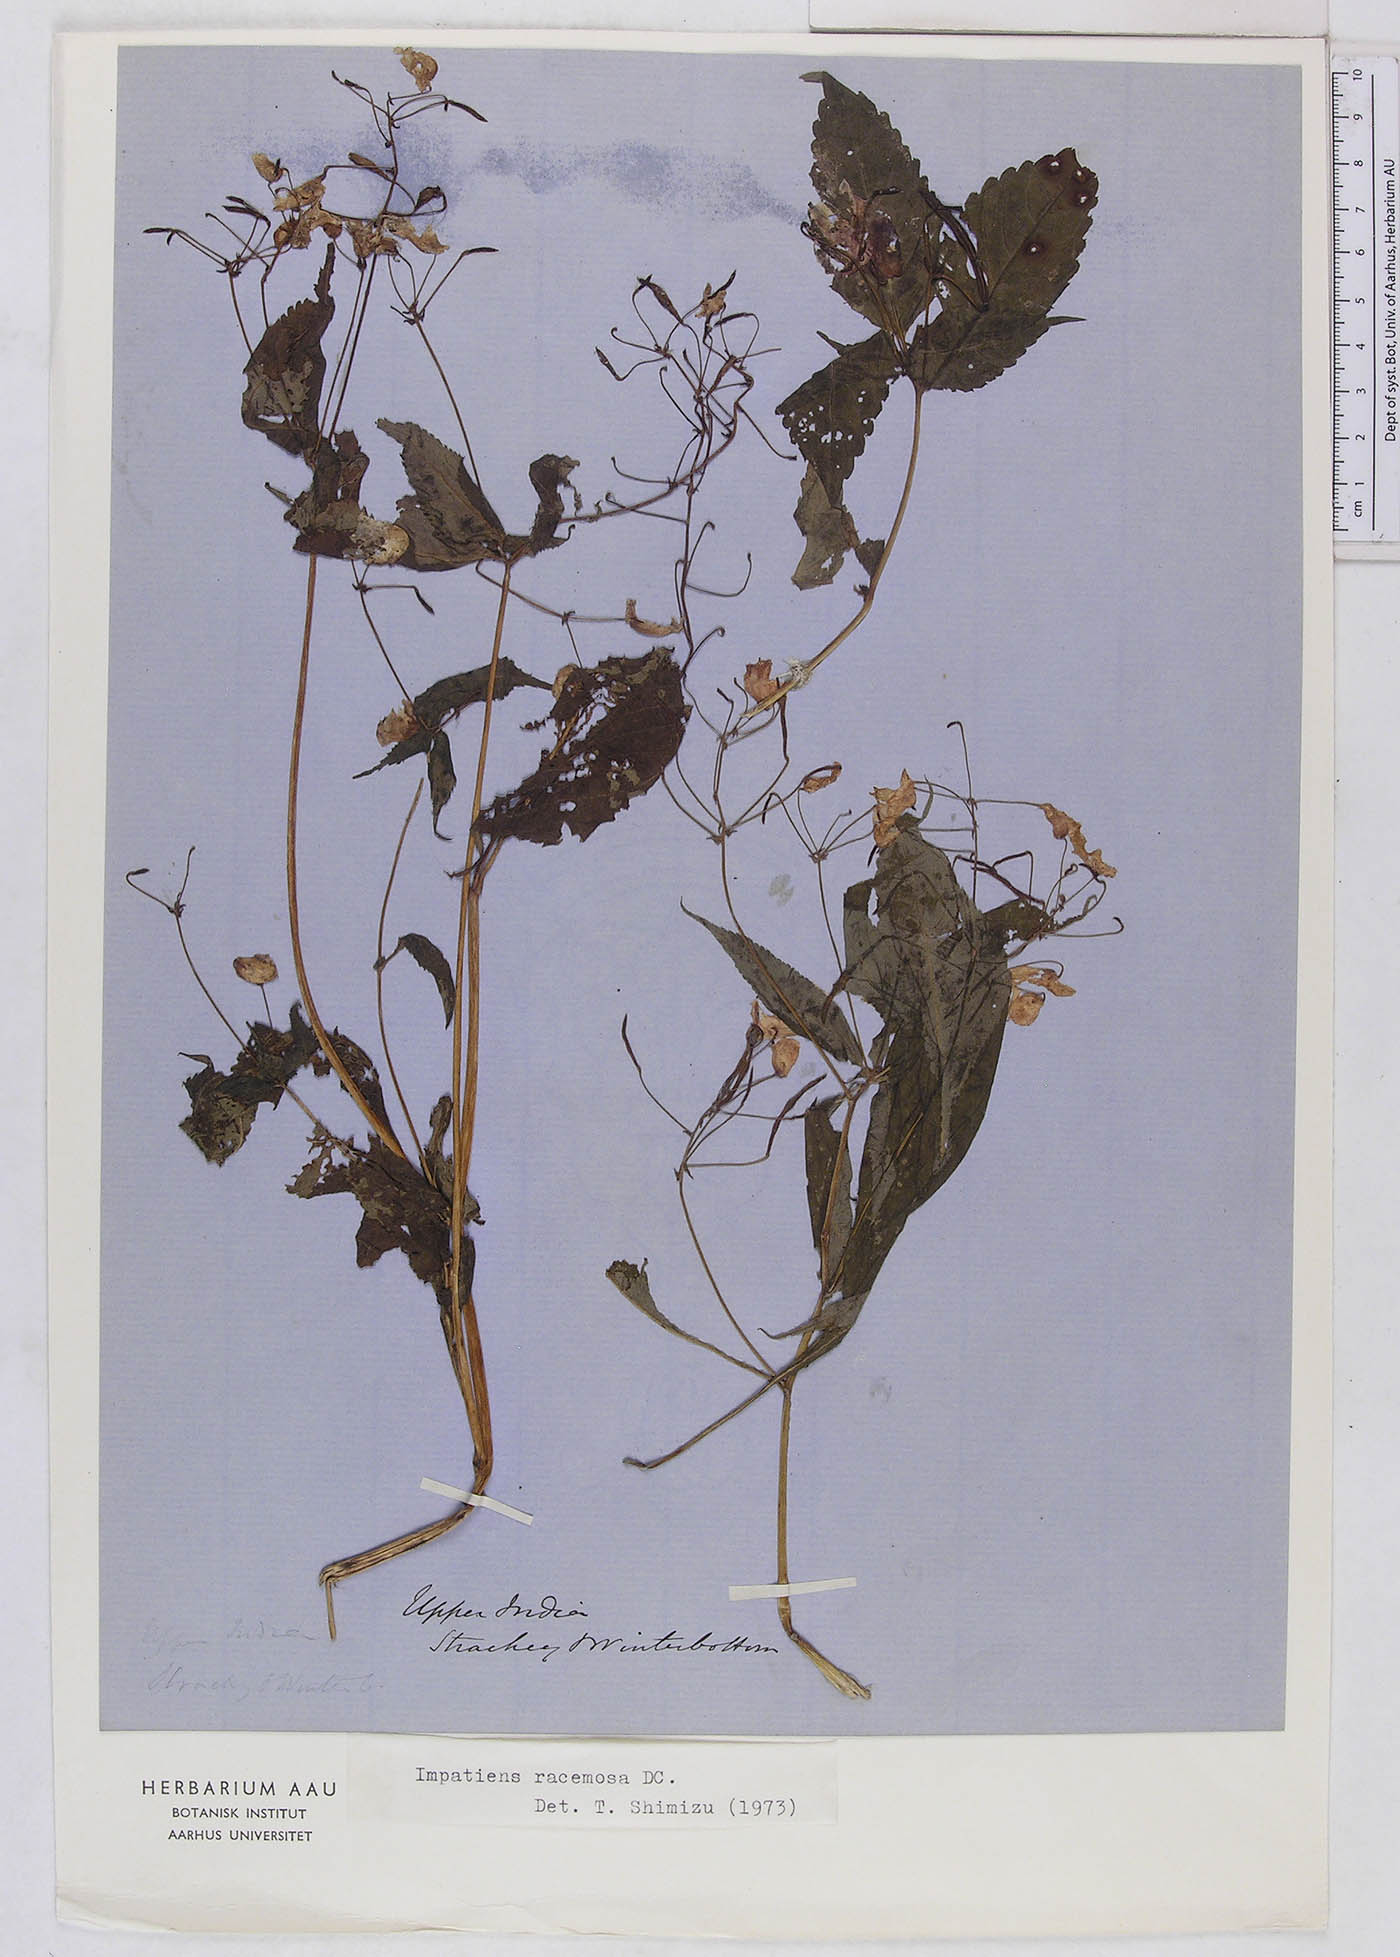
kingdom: Plantae
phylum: Tracheophyta
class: Magnoliopsida
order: Ericales
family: Balsaminaceae
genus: Impatiens
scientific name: Impatiens racemosa
